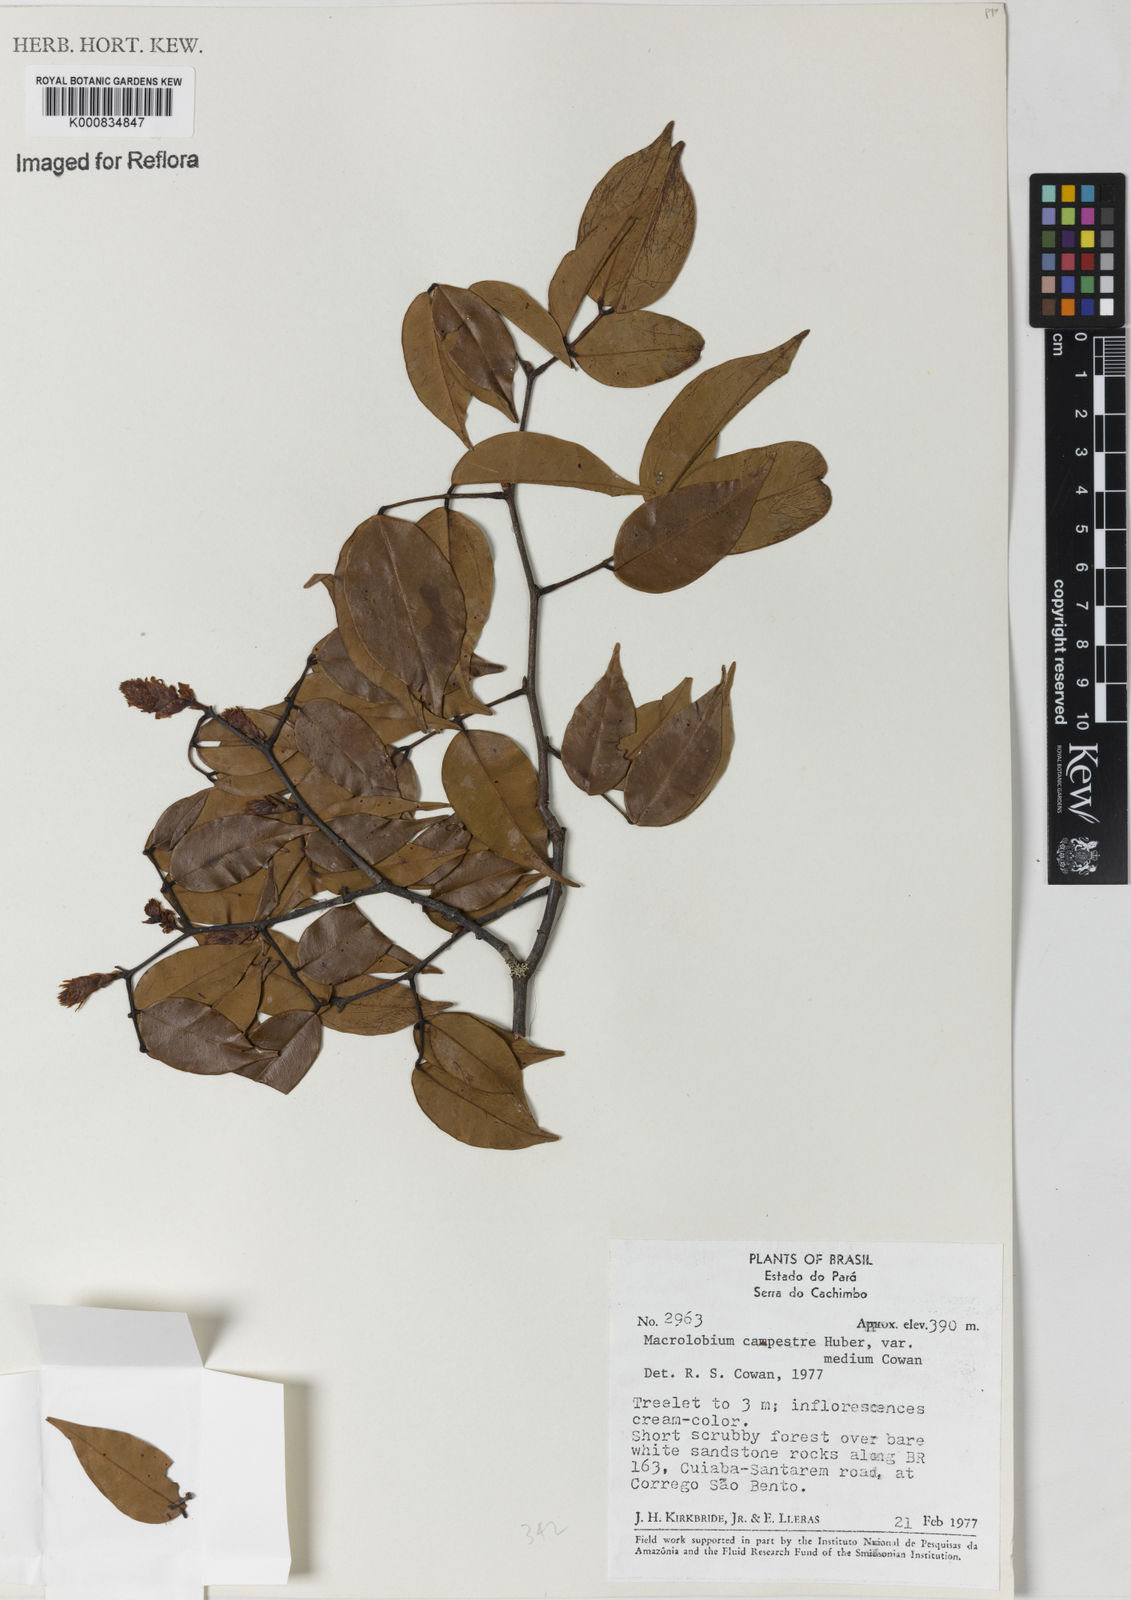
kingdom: Plantae
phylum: Tracheophyta
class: Magnoliopsida
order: Fabales
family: Fabaceae
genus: Macrolobium
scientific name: Macrolobium campestre
